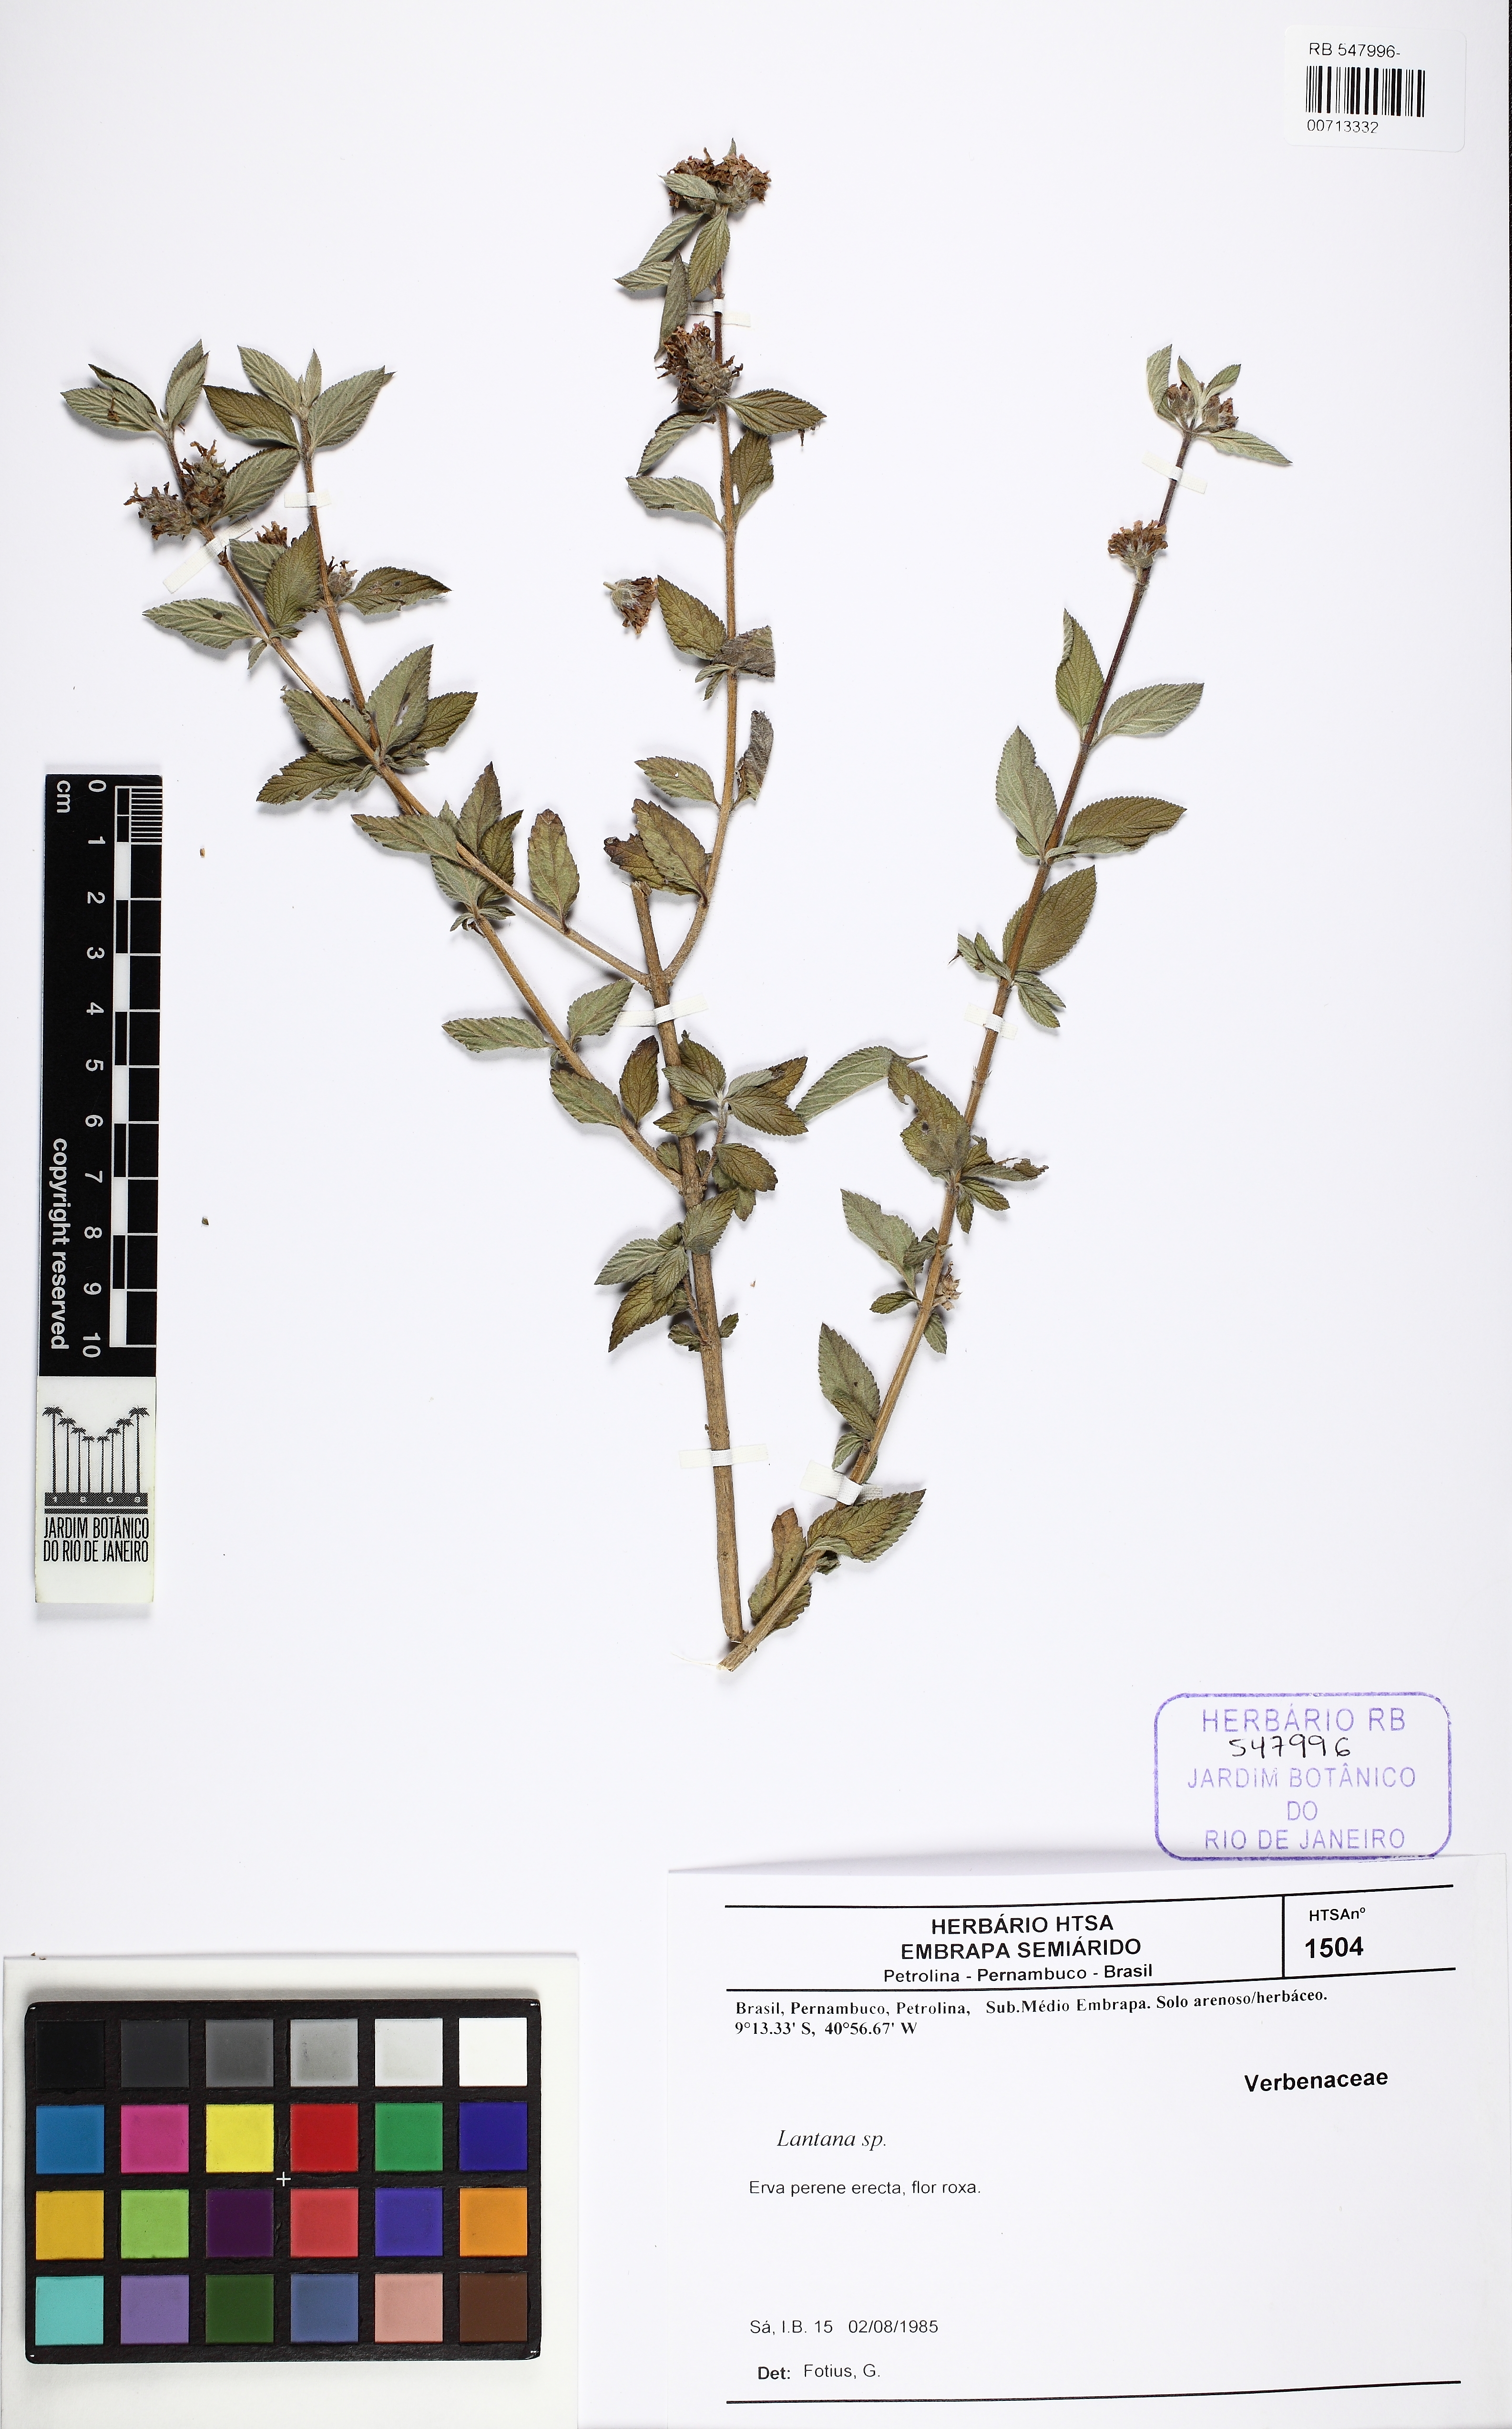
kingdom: Plantae
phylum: Tracheophyta
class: Magnoliopsida
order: Lamiales
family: Verbenaceae
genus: Lantana
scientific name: Lantana
